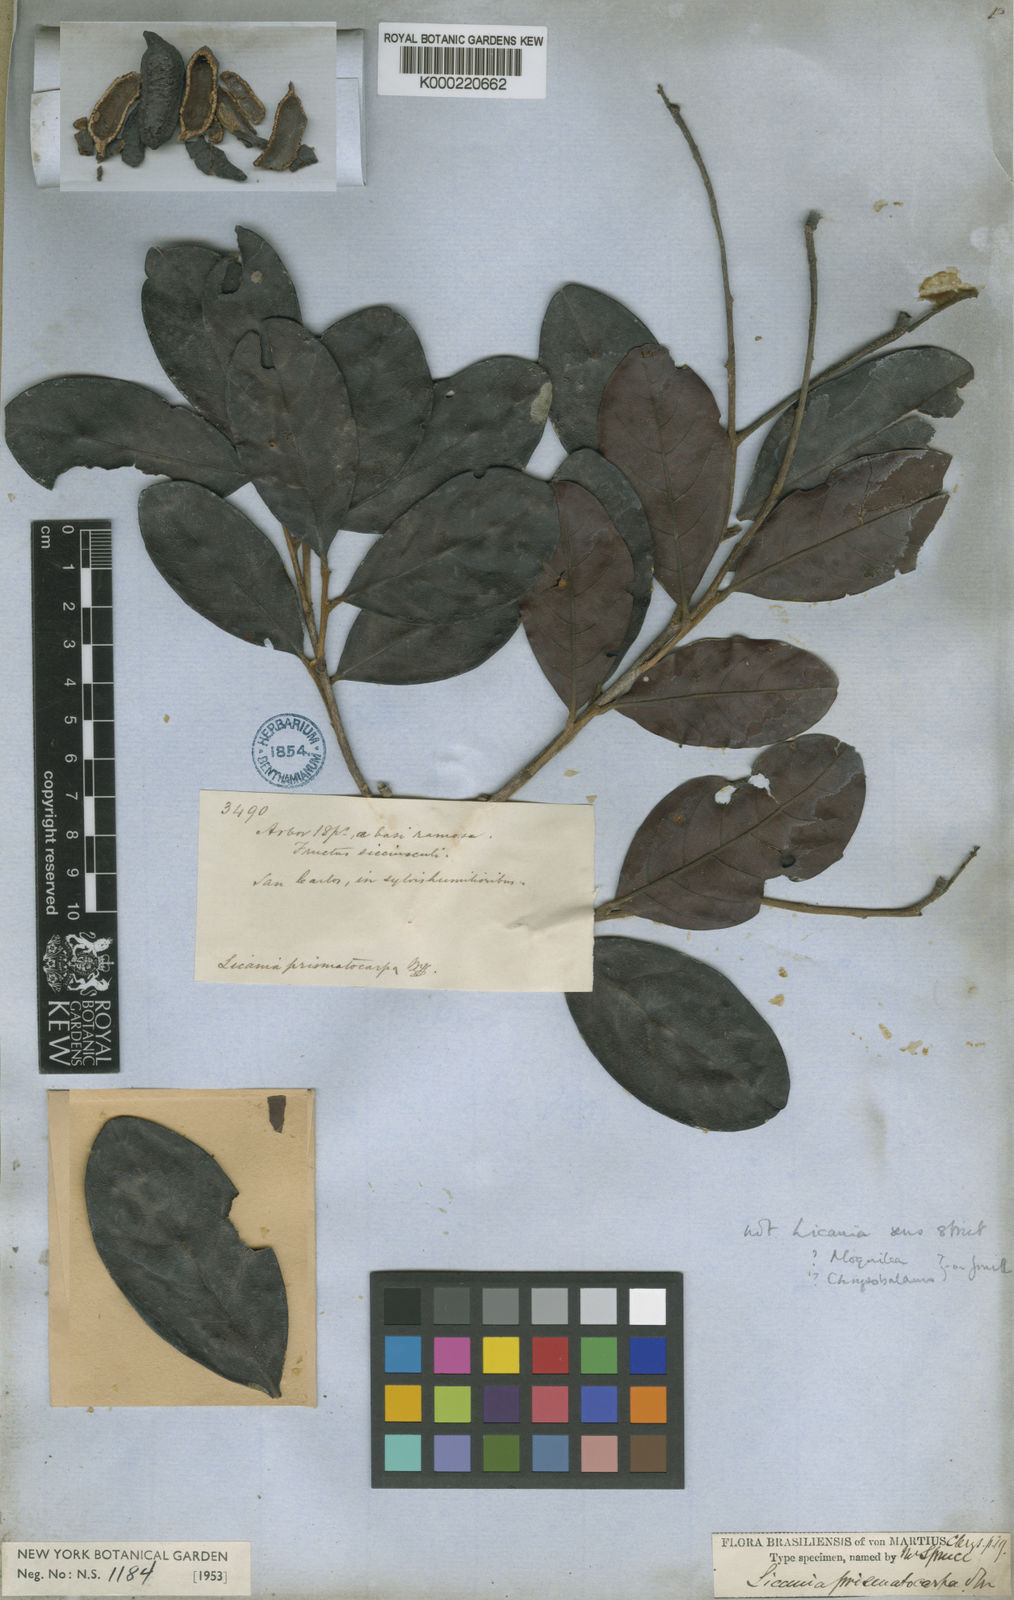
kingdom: Plantae
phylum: Tracheophyta
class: Magnoliopsida
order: Malpighiales
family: Chrysobalanaceae
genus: Hymenopus
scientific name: Hymenopus prismatocarpus
